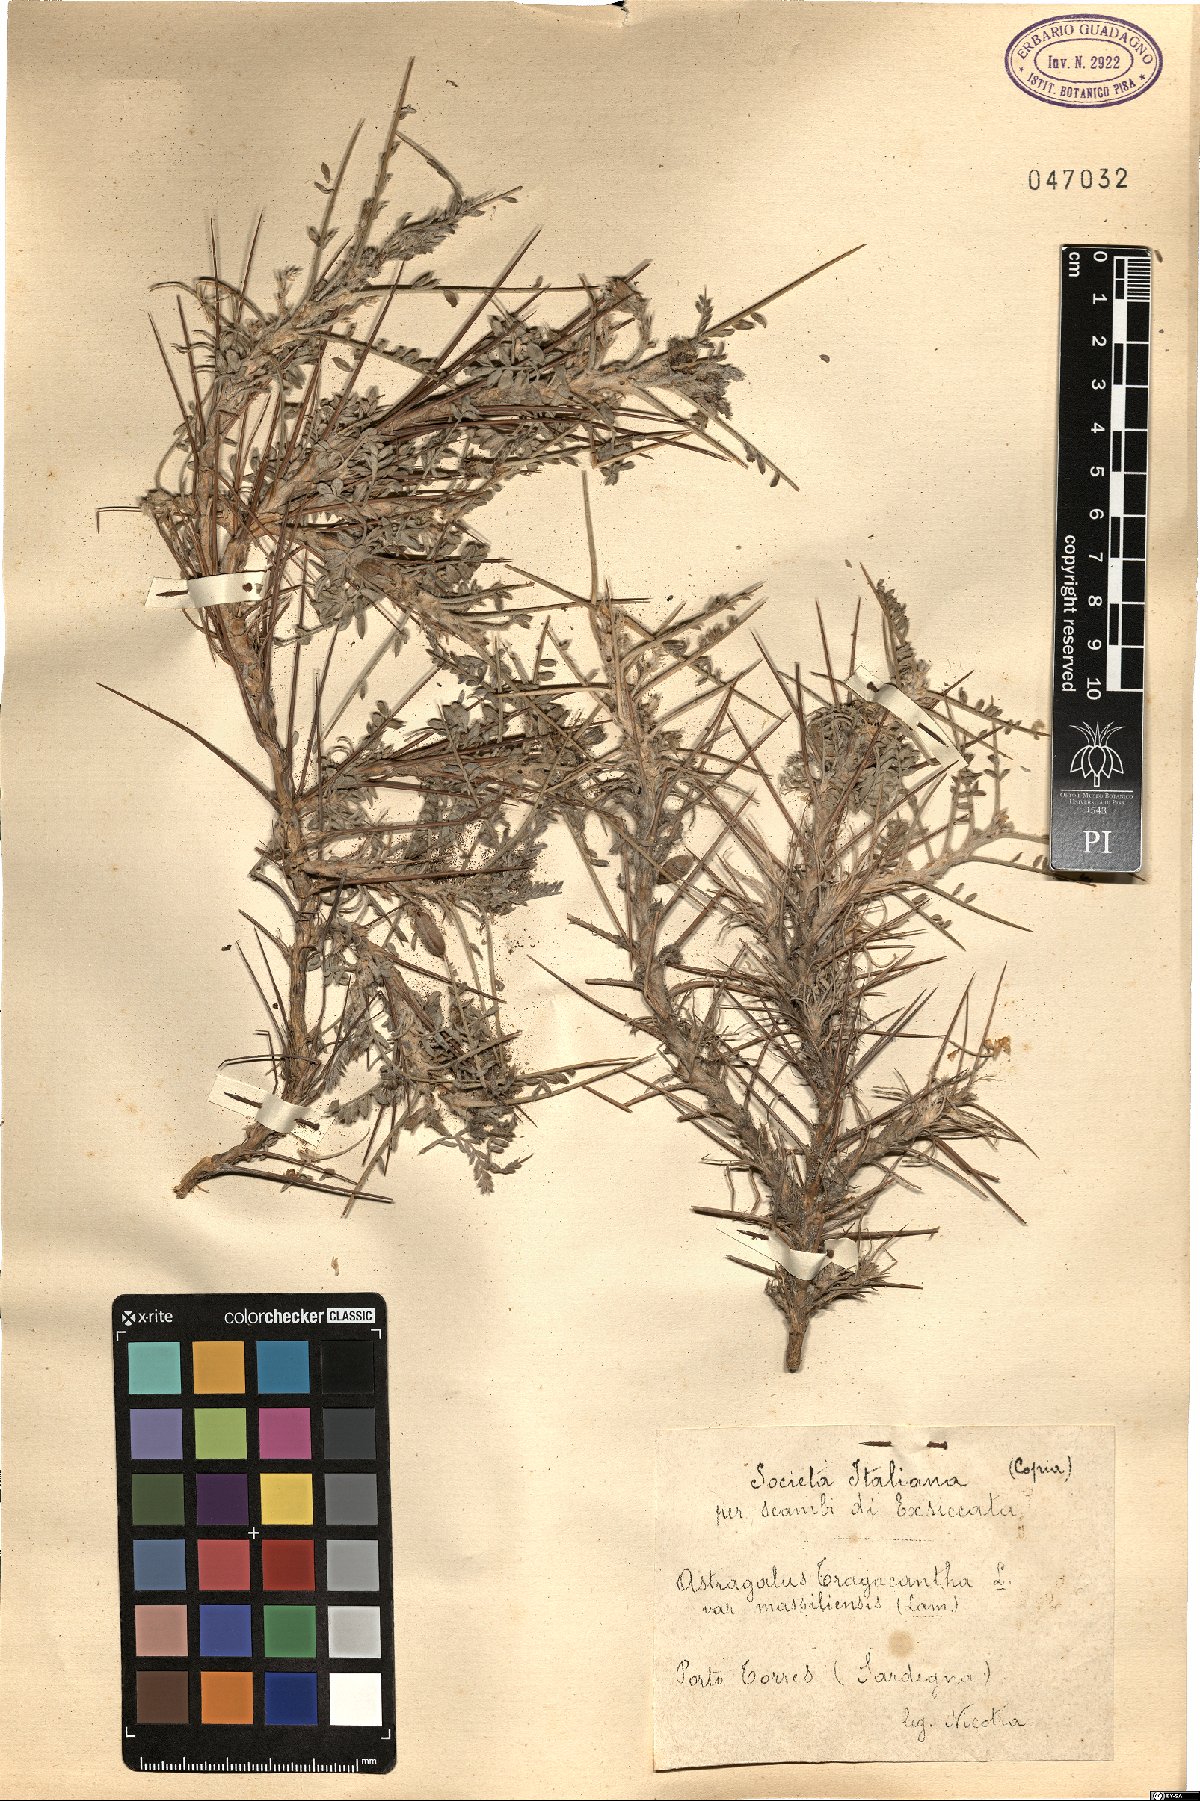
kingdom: Plantae
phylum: Tracheophyta
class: Magnoliopsida
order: Fabales
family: Fabaceae
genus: Astragalus
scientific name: Astragalus tragacantha
